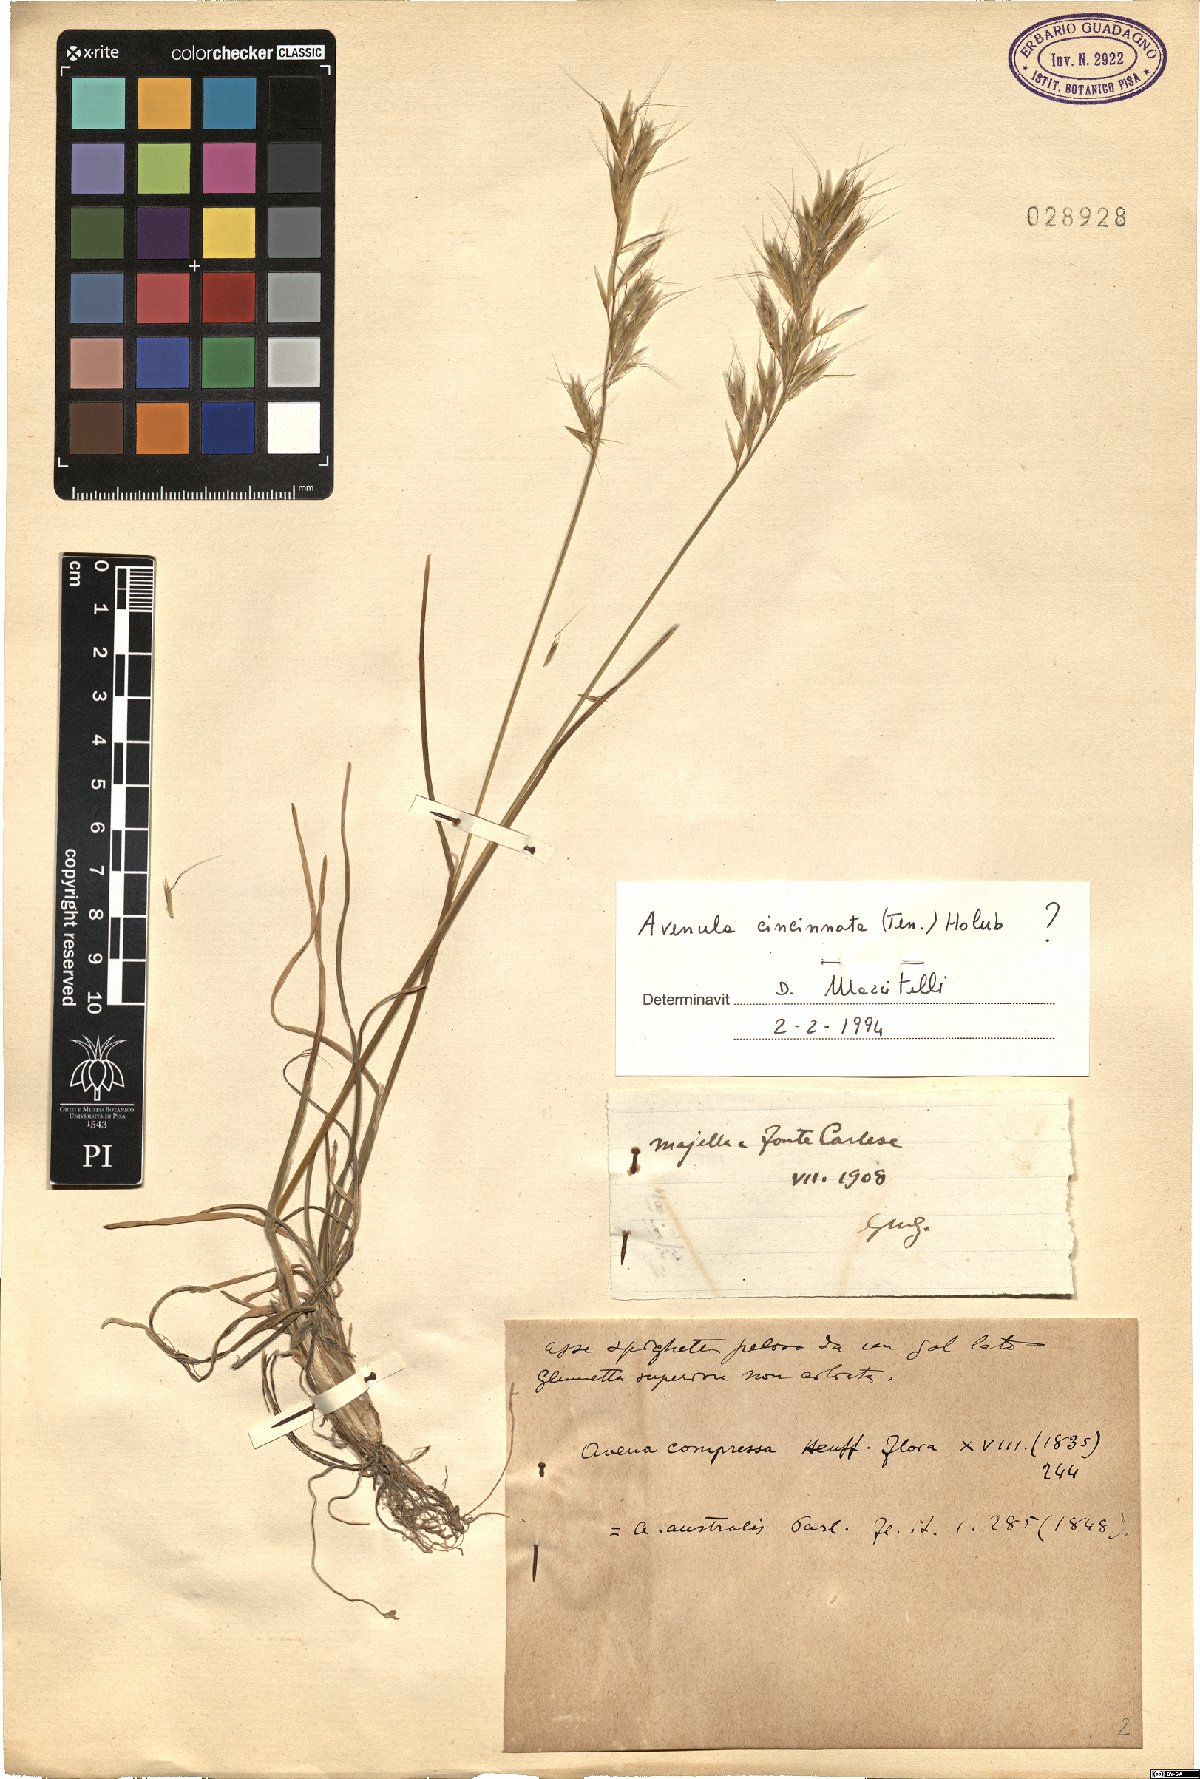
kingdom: Plantae
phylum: Tracheophyta
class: Liliopsida
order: Poales
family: Poaceae
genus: Helictochloa
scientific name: Helictochloa pratensis
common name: Meadow oat grass
